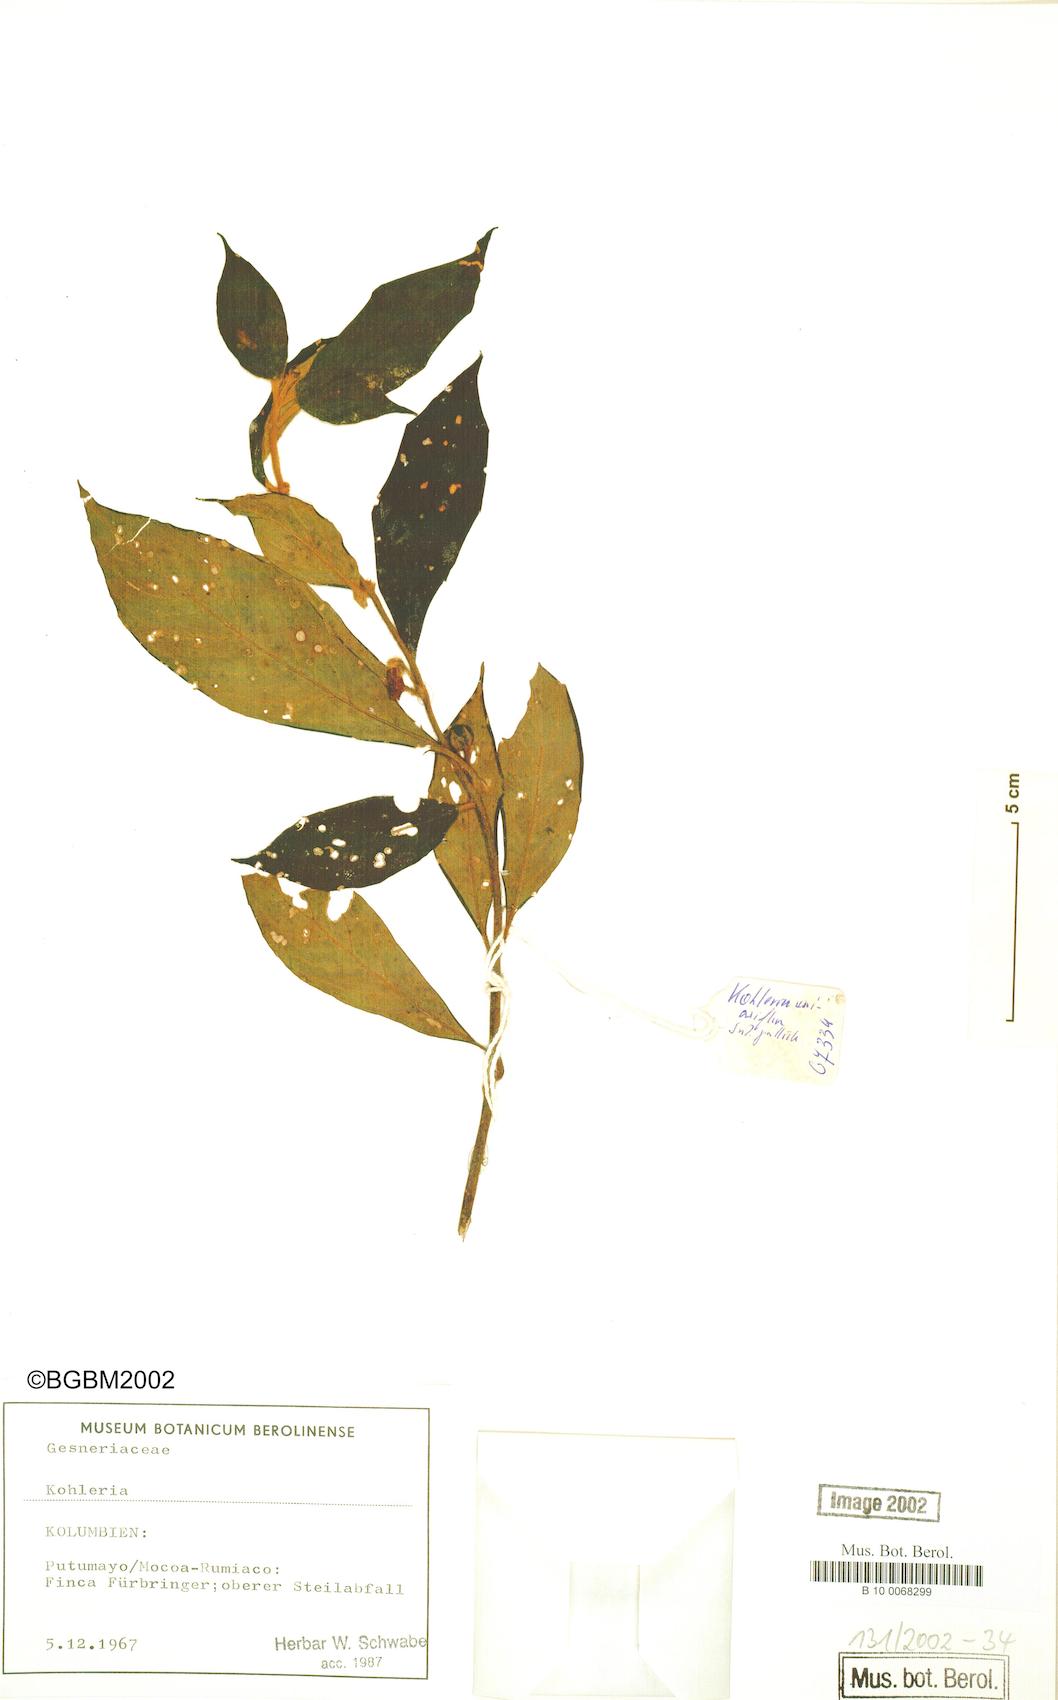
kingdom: Plantae
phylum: Tracheophyta
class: Magnoliopsida
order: Lamiales
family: Gesneriaceae
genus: Kohleria
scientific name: Kohleria
